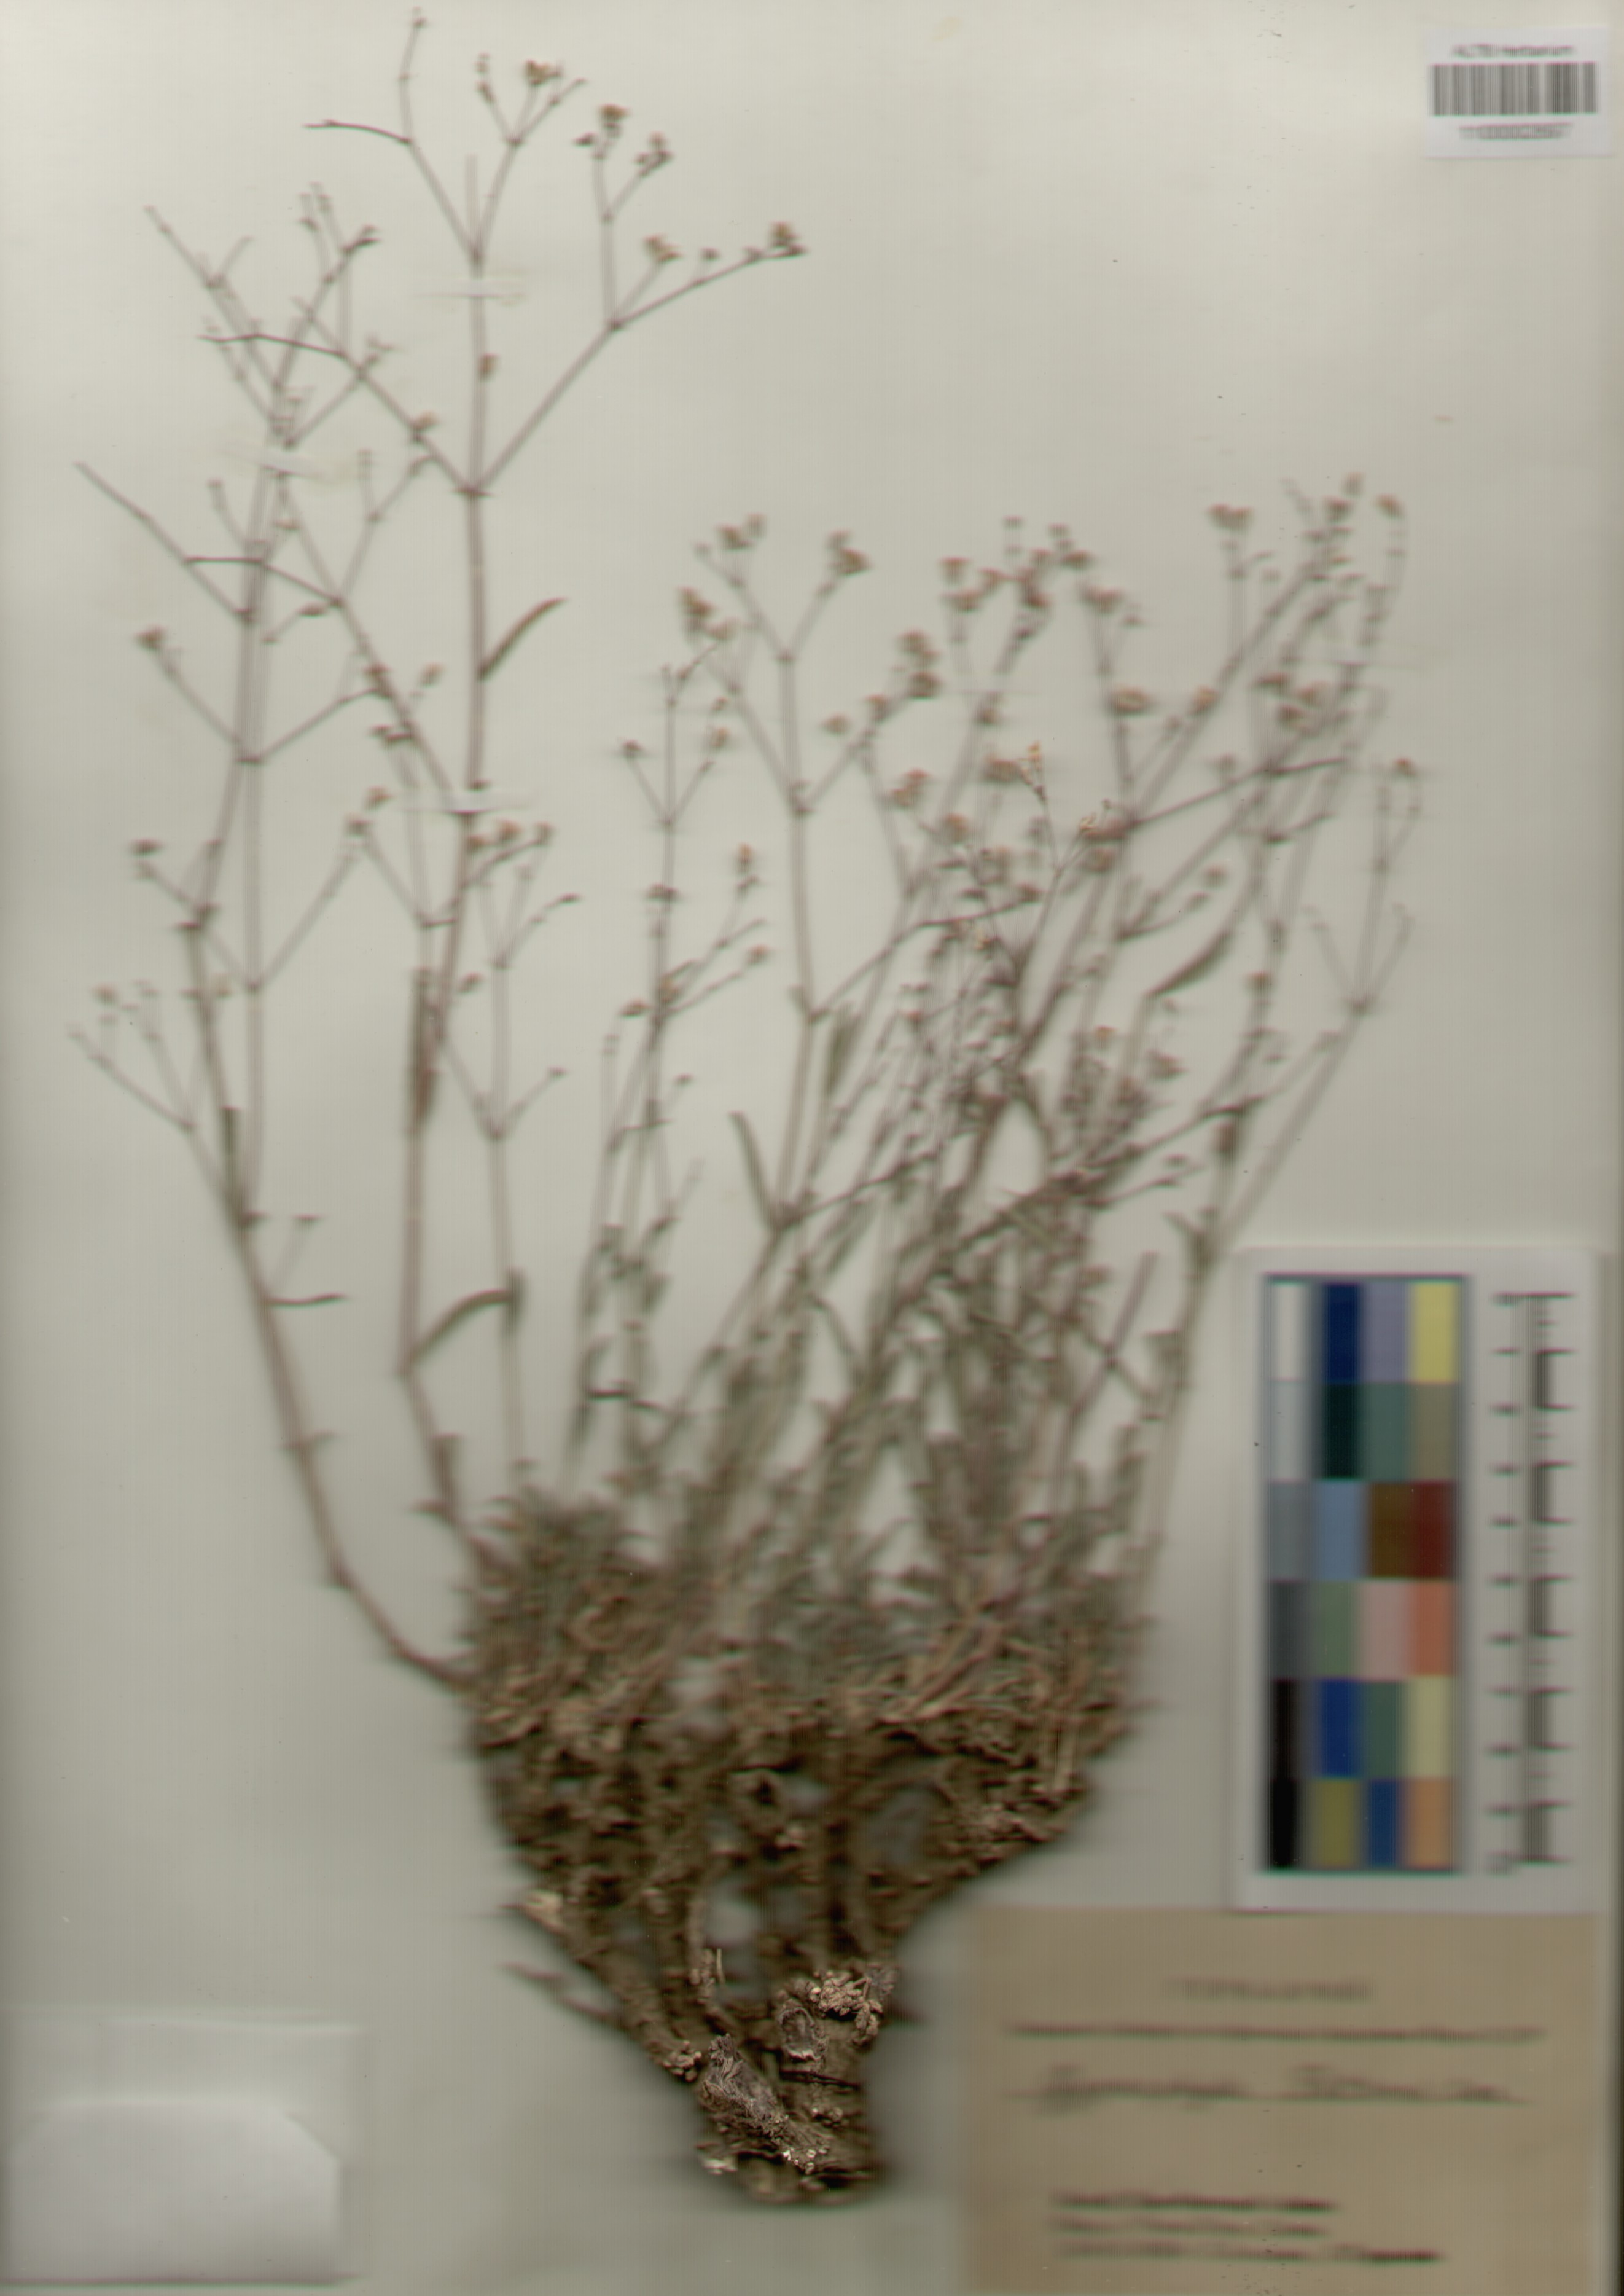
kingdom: Plantae
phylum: Tracheophyta
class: Magnoliopsida
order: Caryophyllales
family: Caryophyllaceae
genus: Gypsophila
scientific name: Gypsophila patrinii
